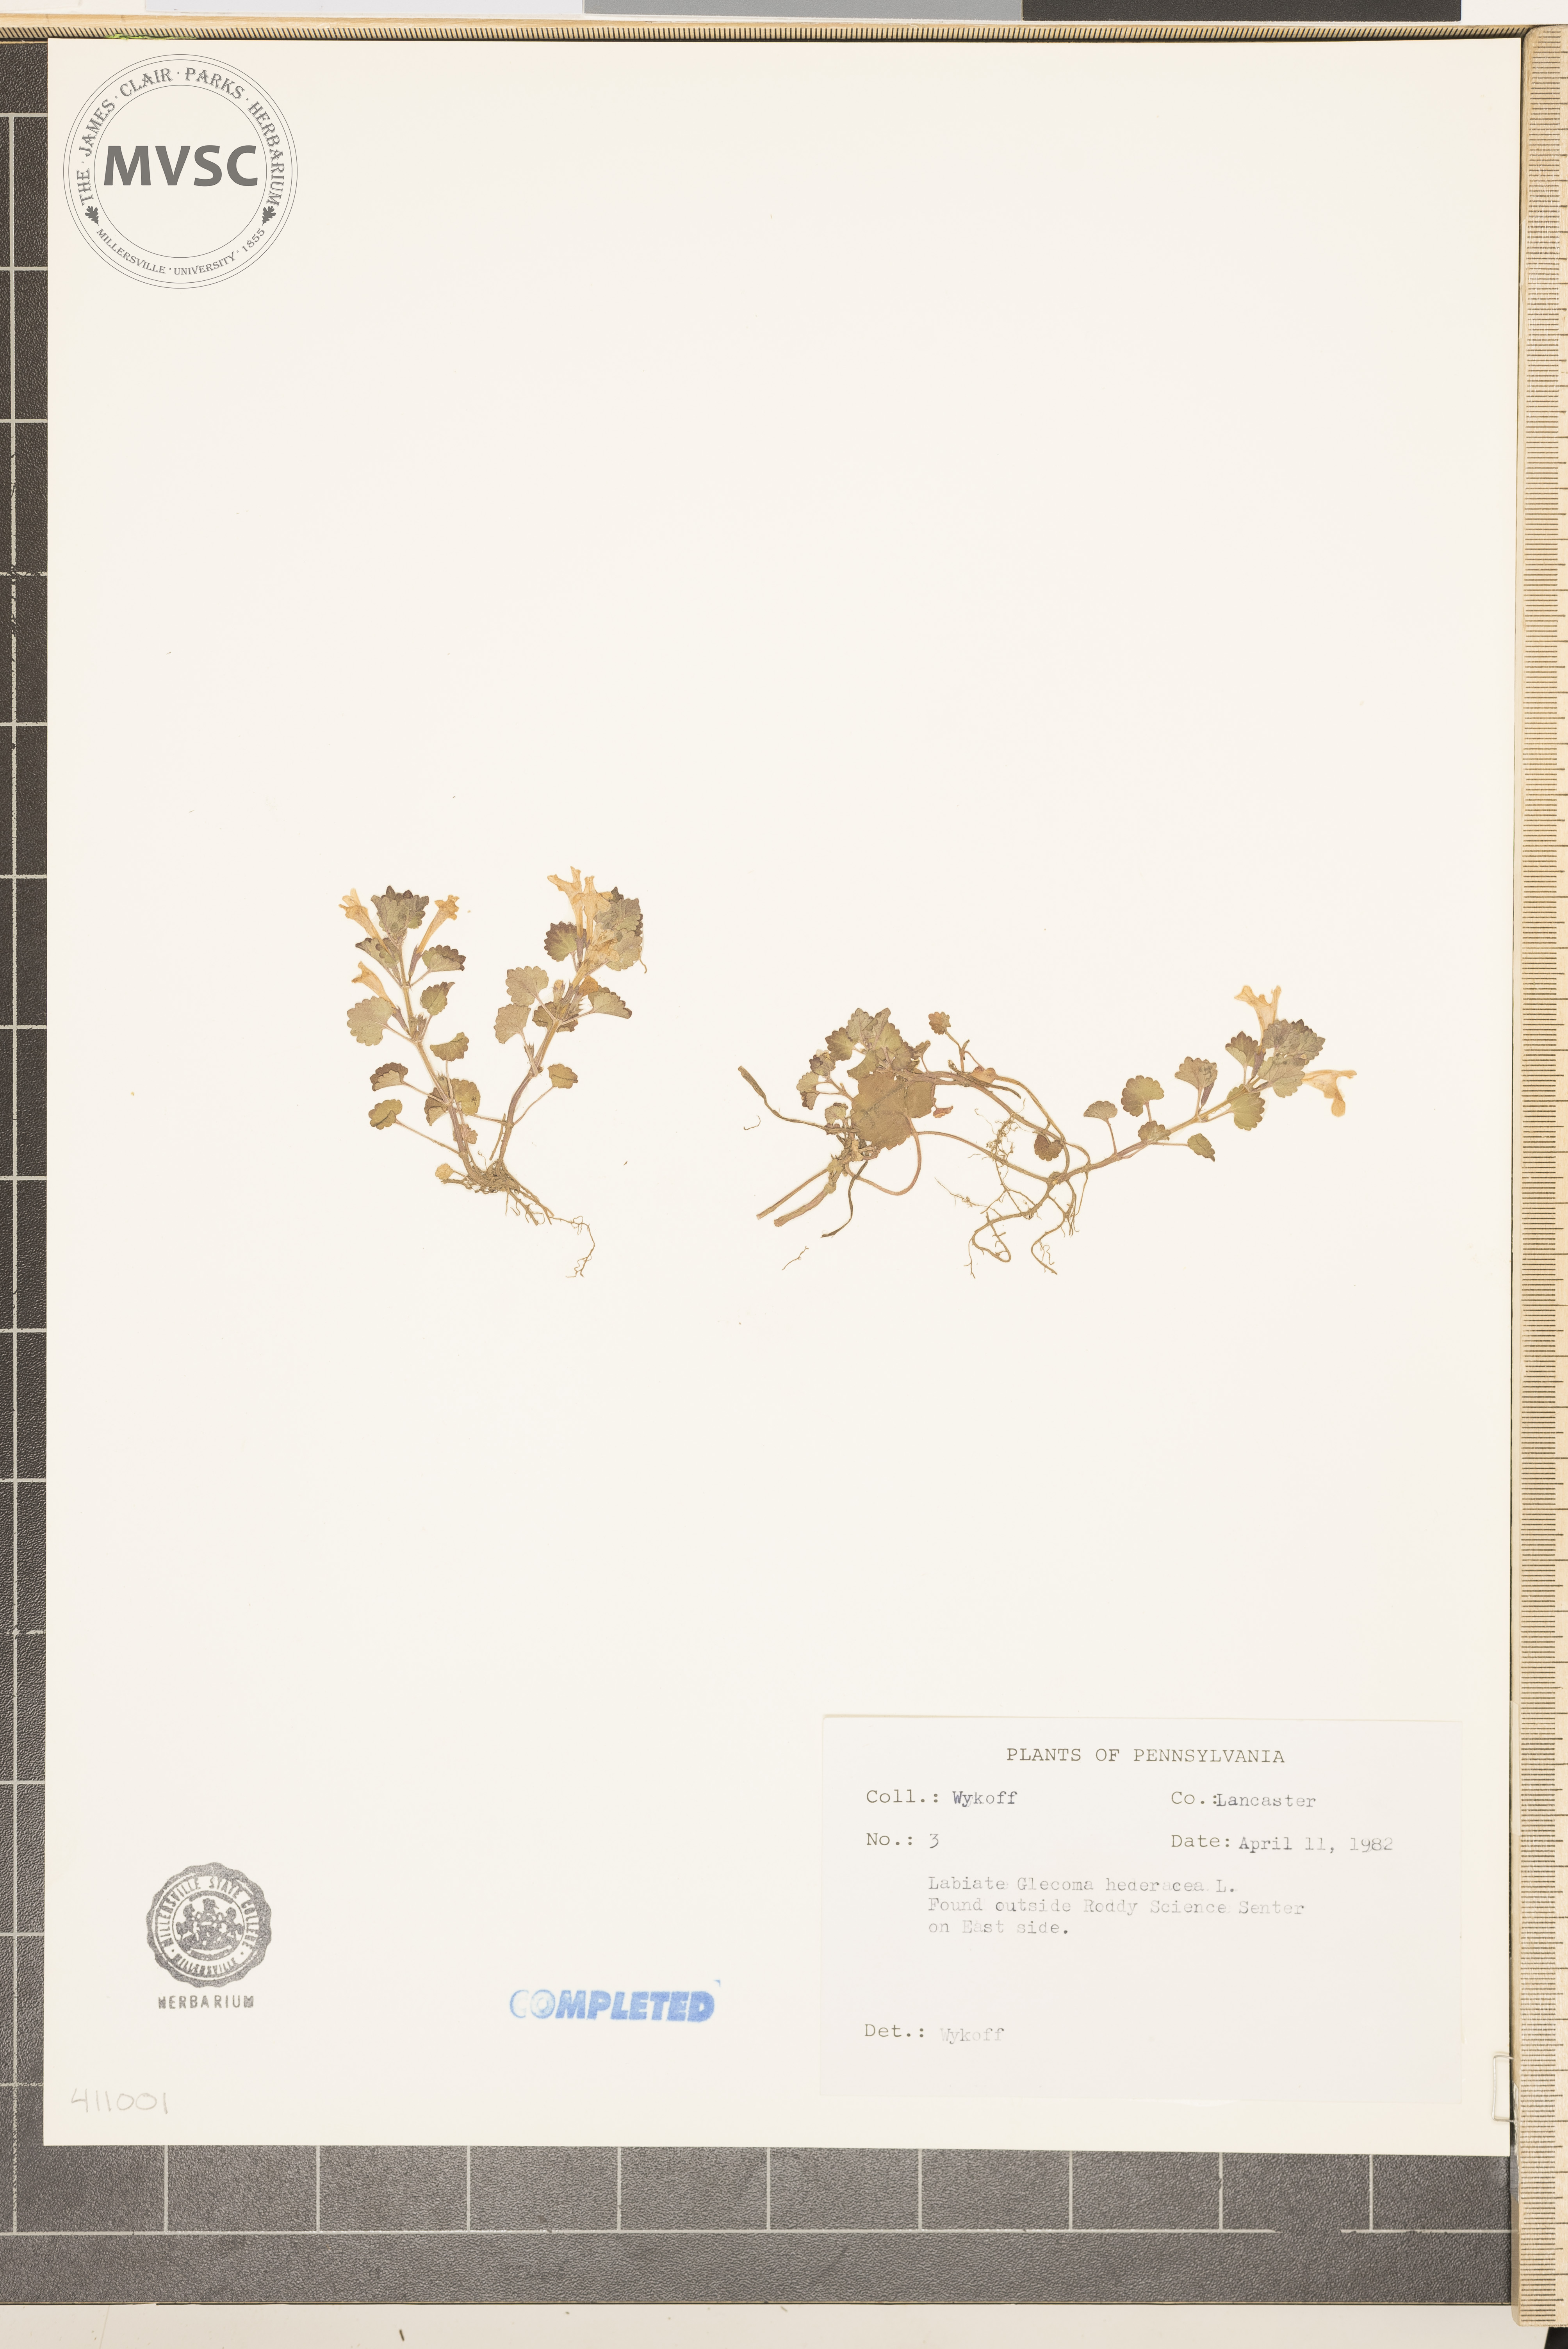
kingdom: Plantae
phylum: Tracheophyta
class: Magnoliopsida
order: Lamiales
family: Lamiaceae
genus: Glechoma
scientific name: Glechoma hederacea
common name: ground ivy
